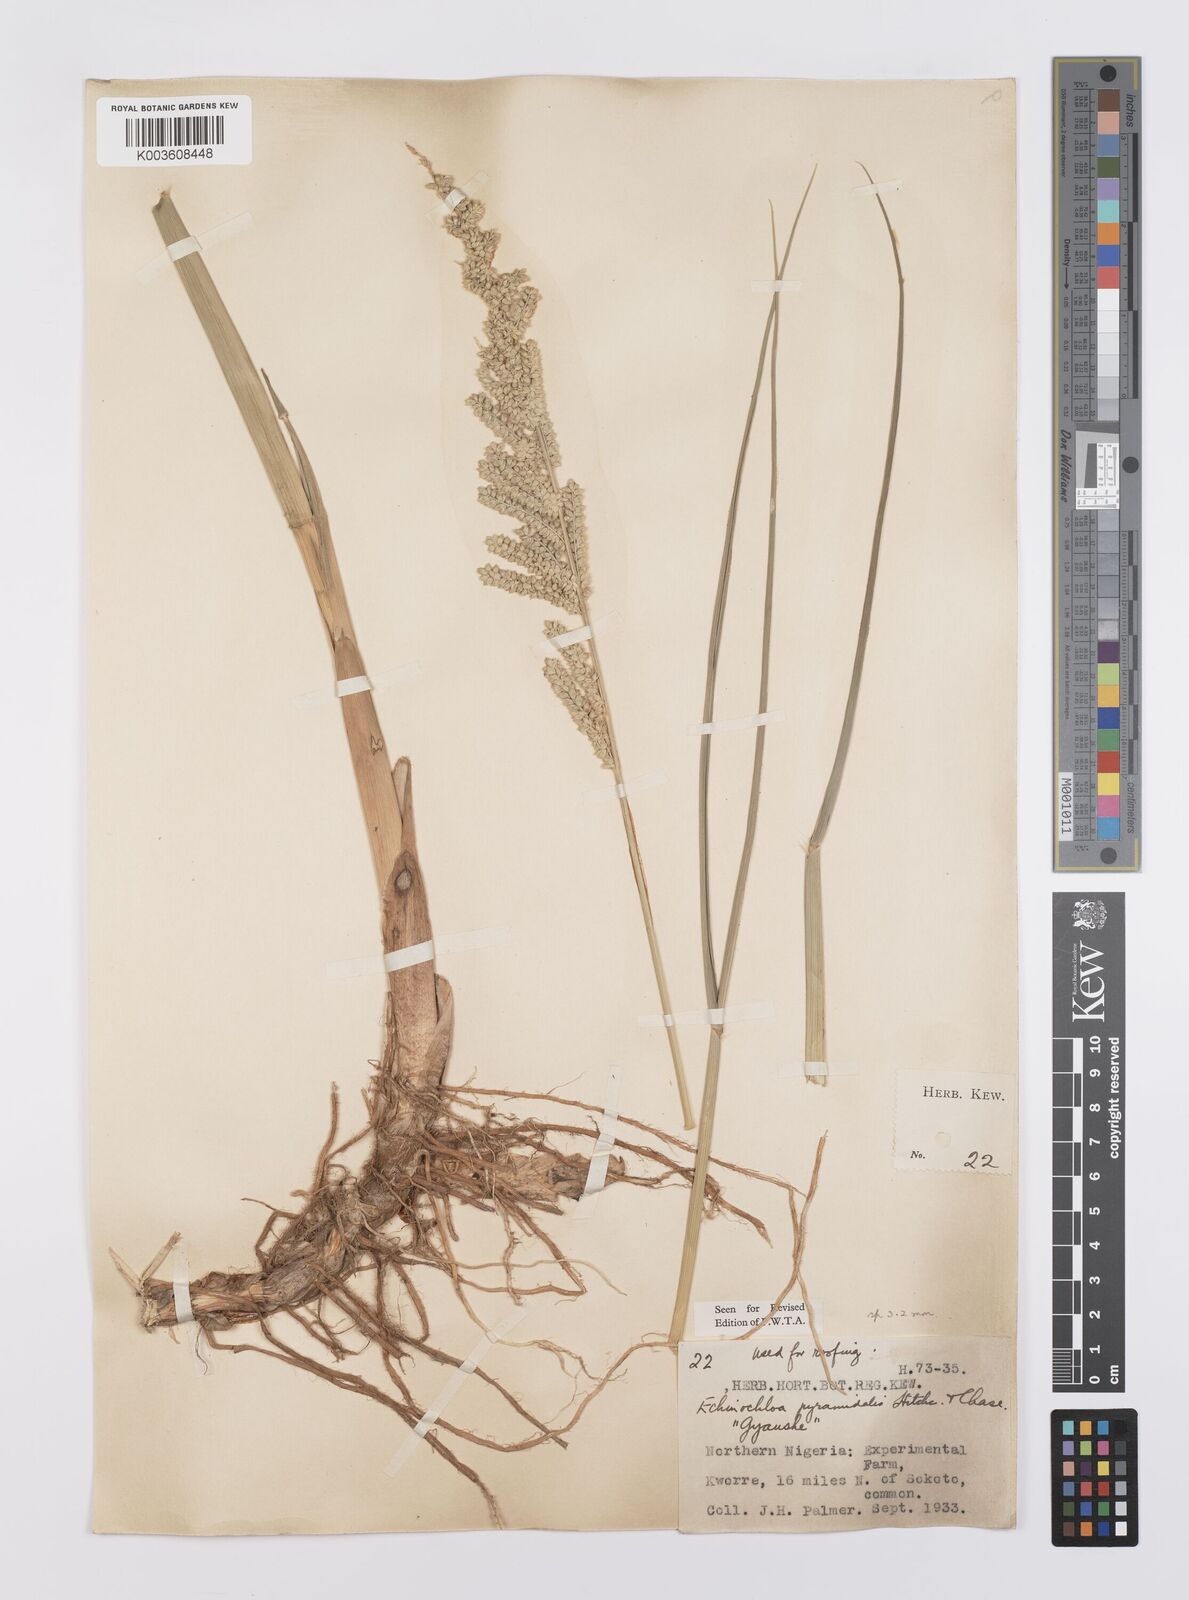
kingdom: Plantae
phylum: Tracheophyta
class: Liliopsida
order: Poales
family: Poaceae
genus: Echinochloa
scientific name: Echinochloa pyramidalis
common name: Antelope grass
